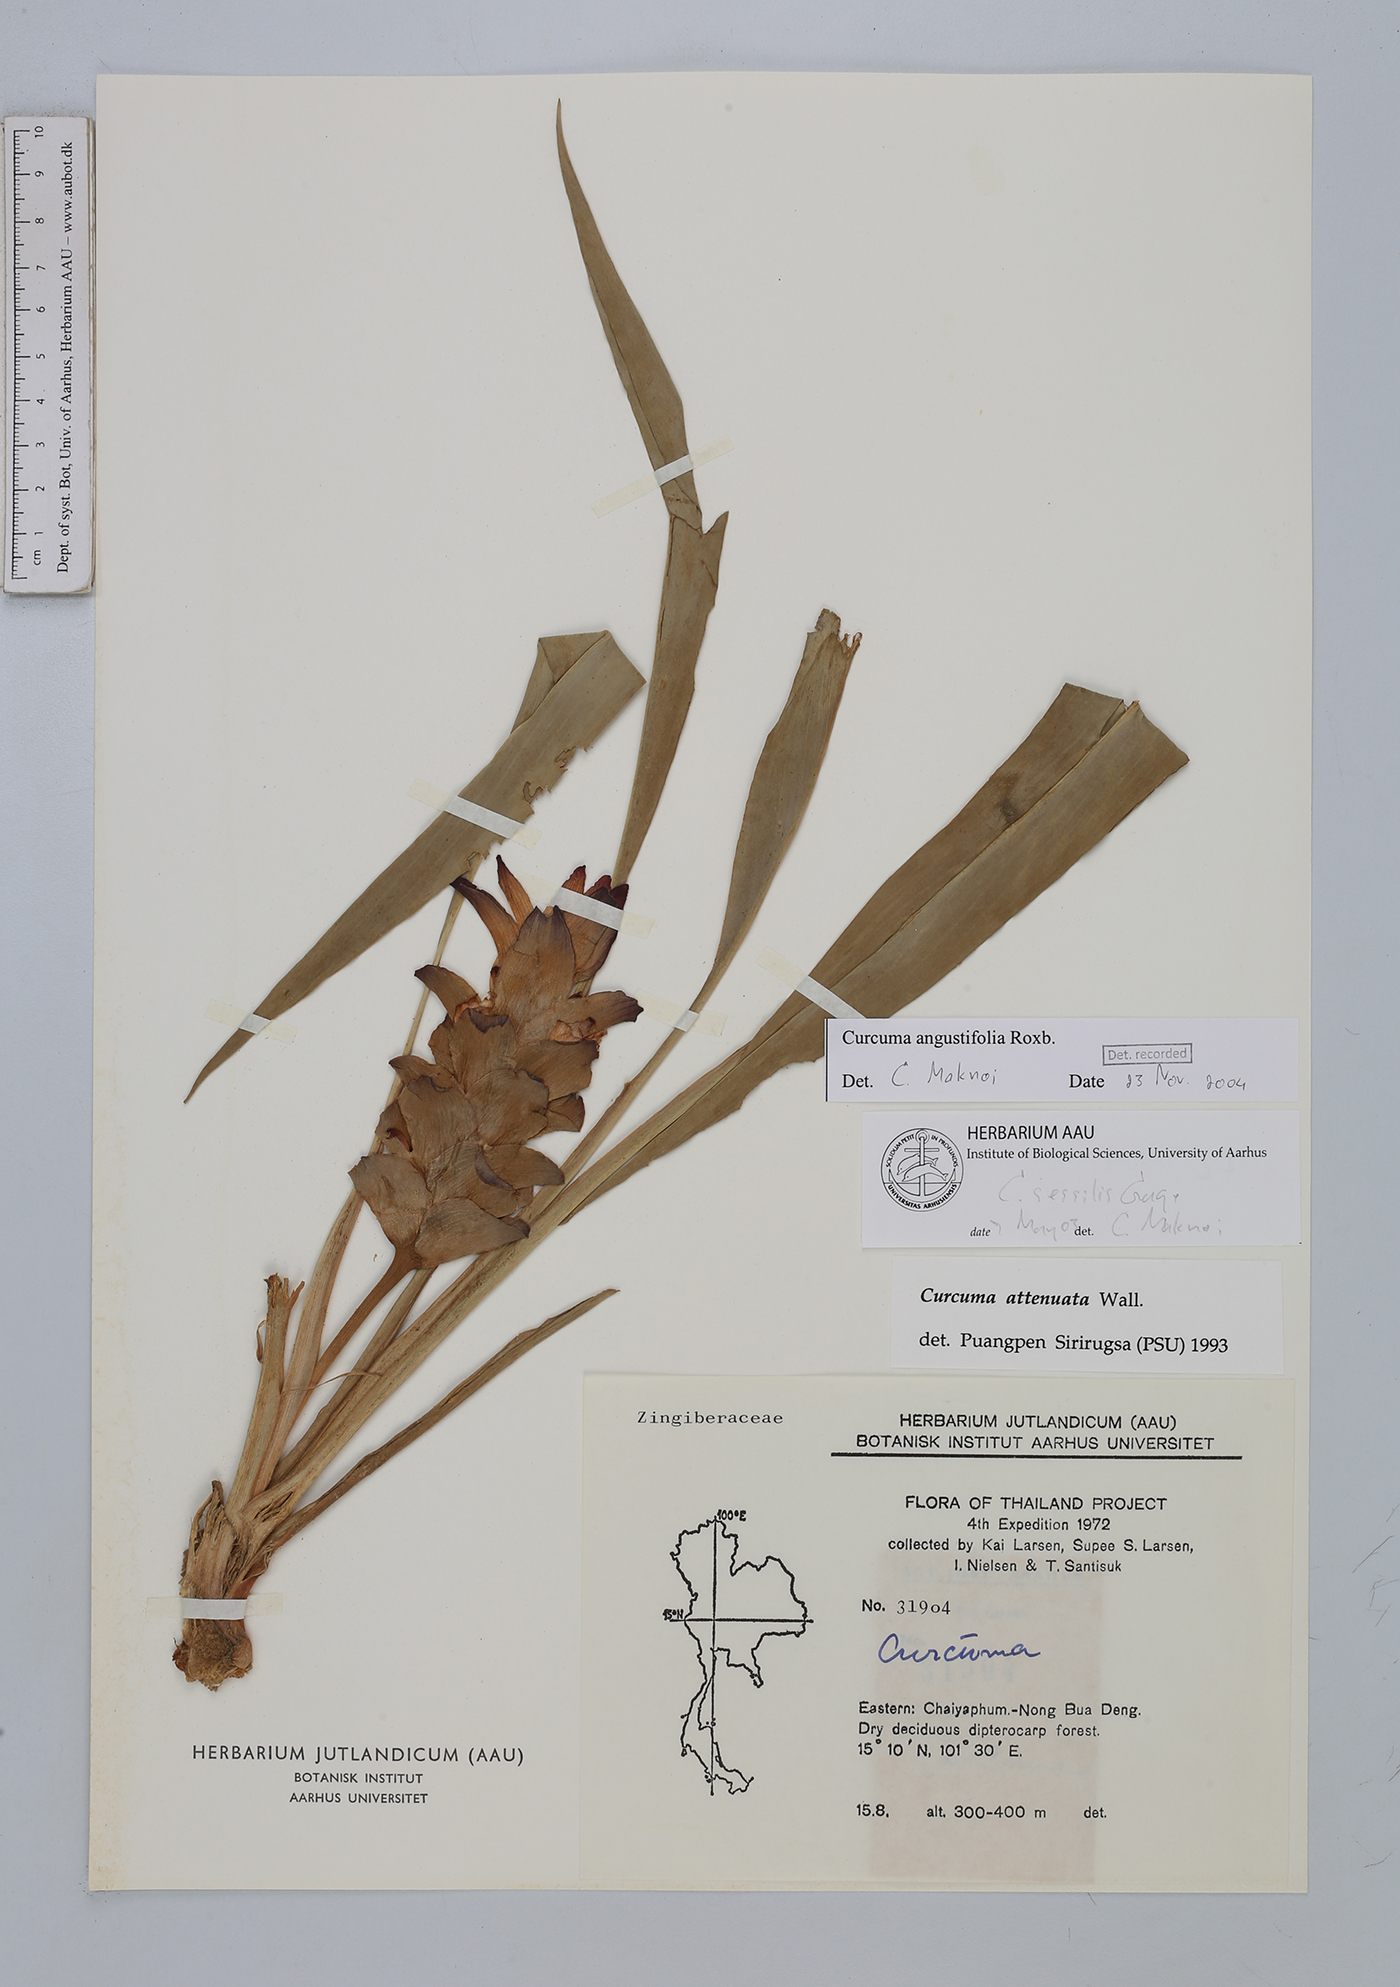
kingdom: Plantae
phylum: Tracheophyta
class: Liliopsida
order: Zingiberales
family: Zingiberaceae
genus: Curcuma
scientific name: Curcuma angustifolia
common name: East indian arrowroot
